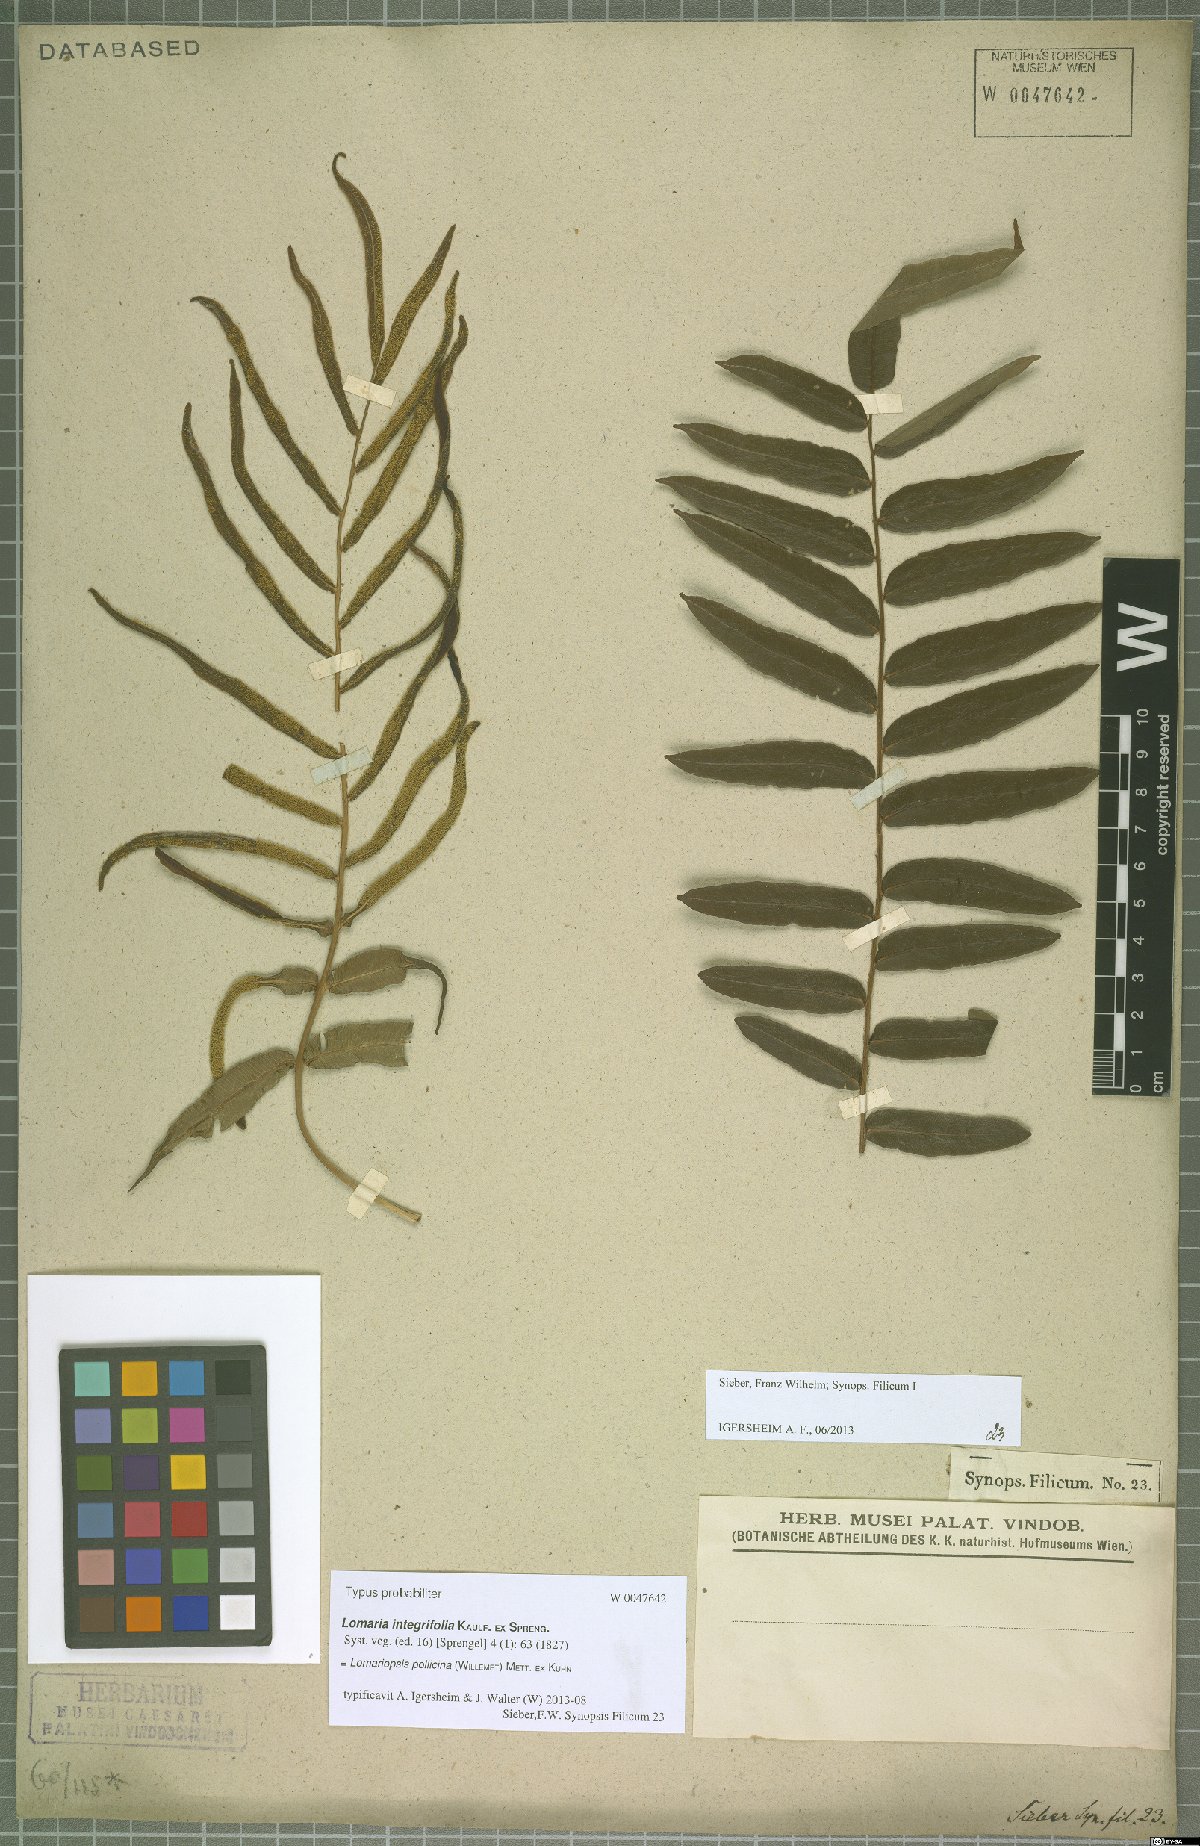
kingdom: Plantae
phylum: Tracheophyta
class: Polypodiopsida
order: Polypodiales
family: Lomariopsidaceae
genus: Lomariopsis
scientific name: Lomariopsis pollicina
